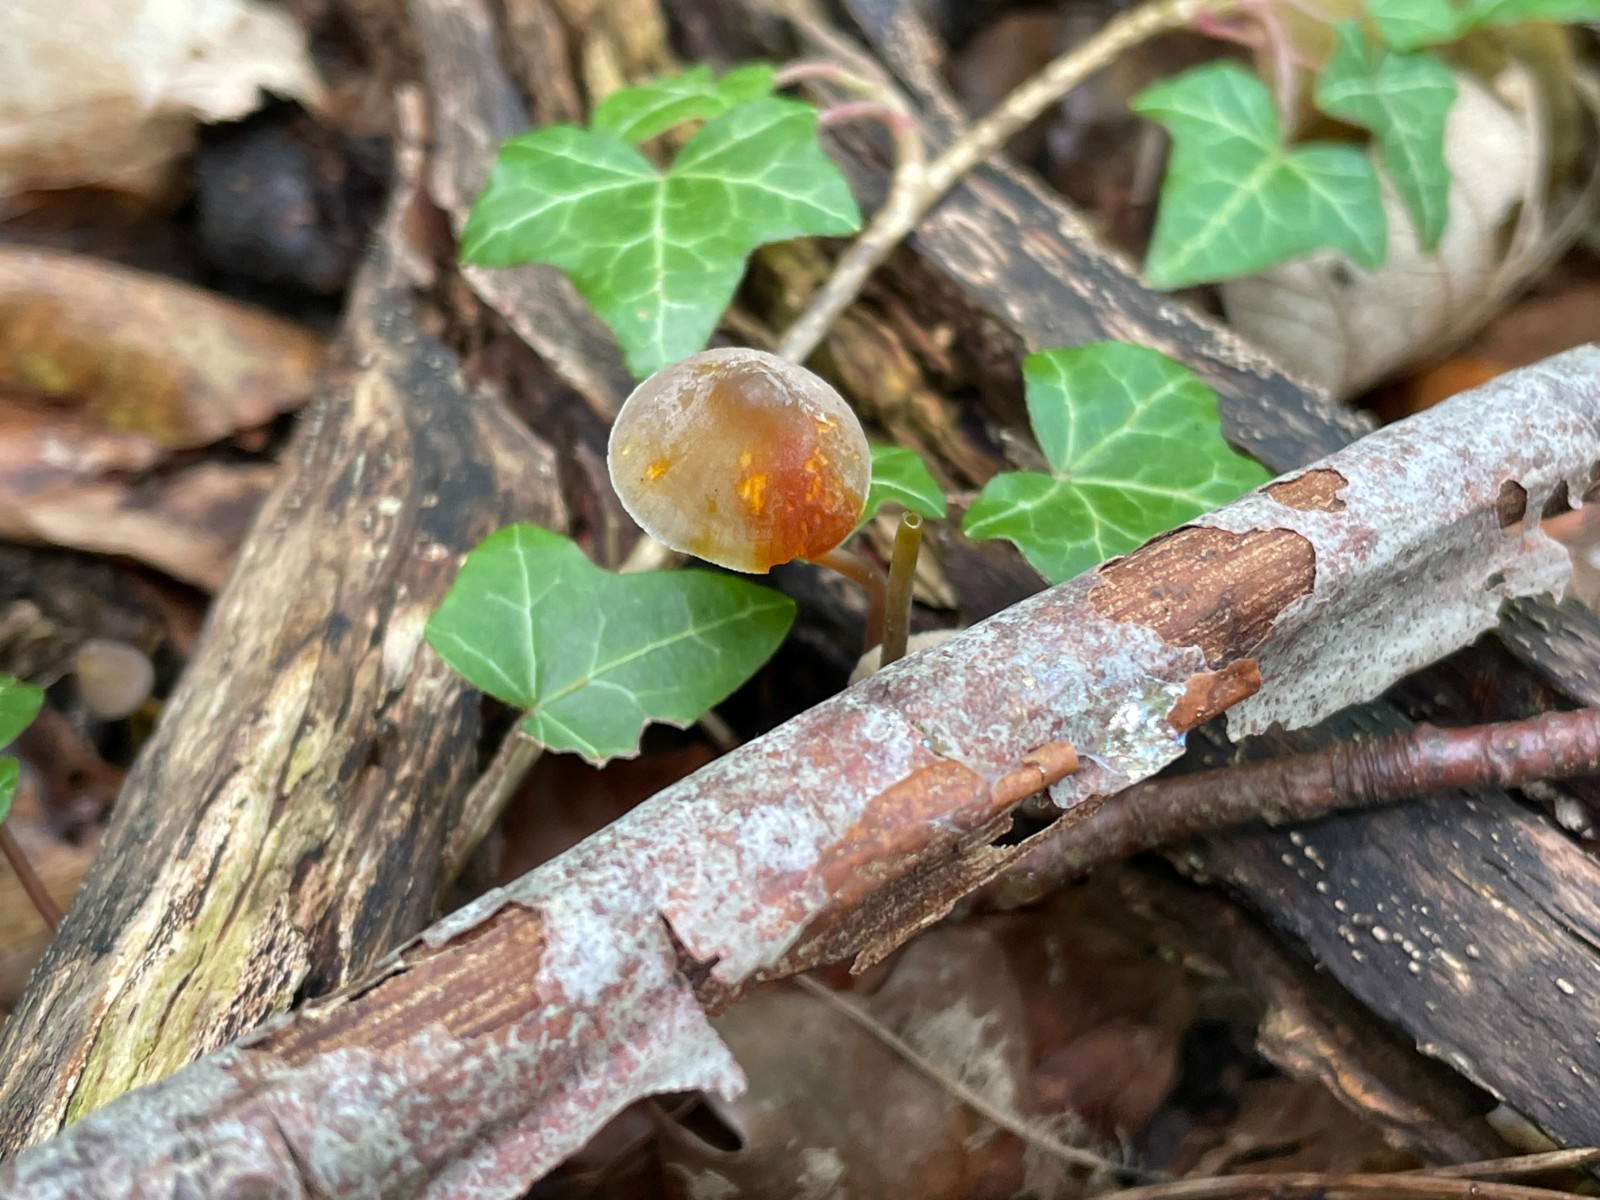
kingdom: Fungi
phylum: Basidiomycota
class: Agaricomycetes
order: Agaricales
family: Mycenaceae
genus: Mycena
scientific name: Mycena crocata
